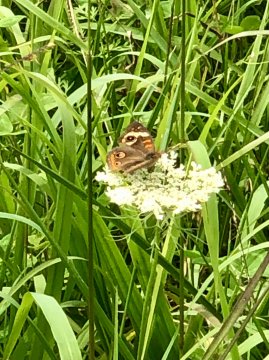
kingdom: Animalia
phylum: Arthropoda
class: Insecta
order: Lepidoptera
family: Nymphalidae
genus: Junonia
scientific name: Junonia coenia
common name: Common Buckeye
